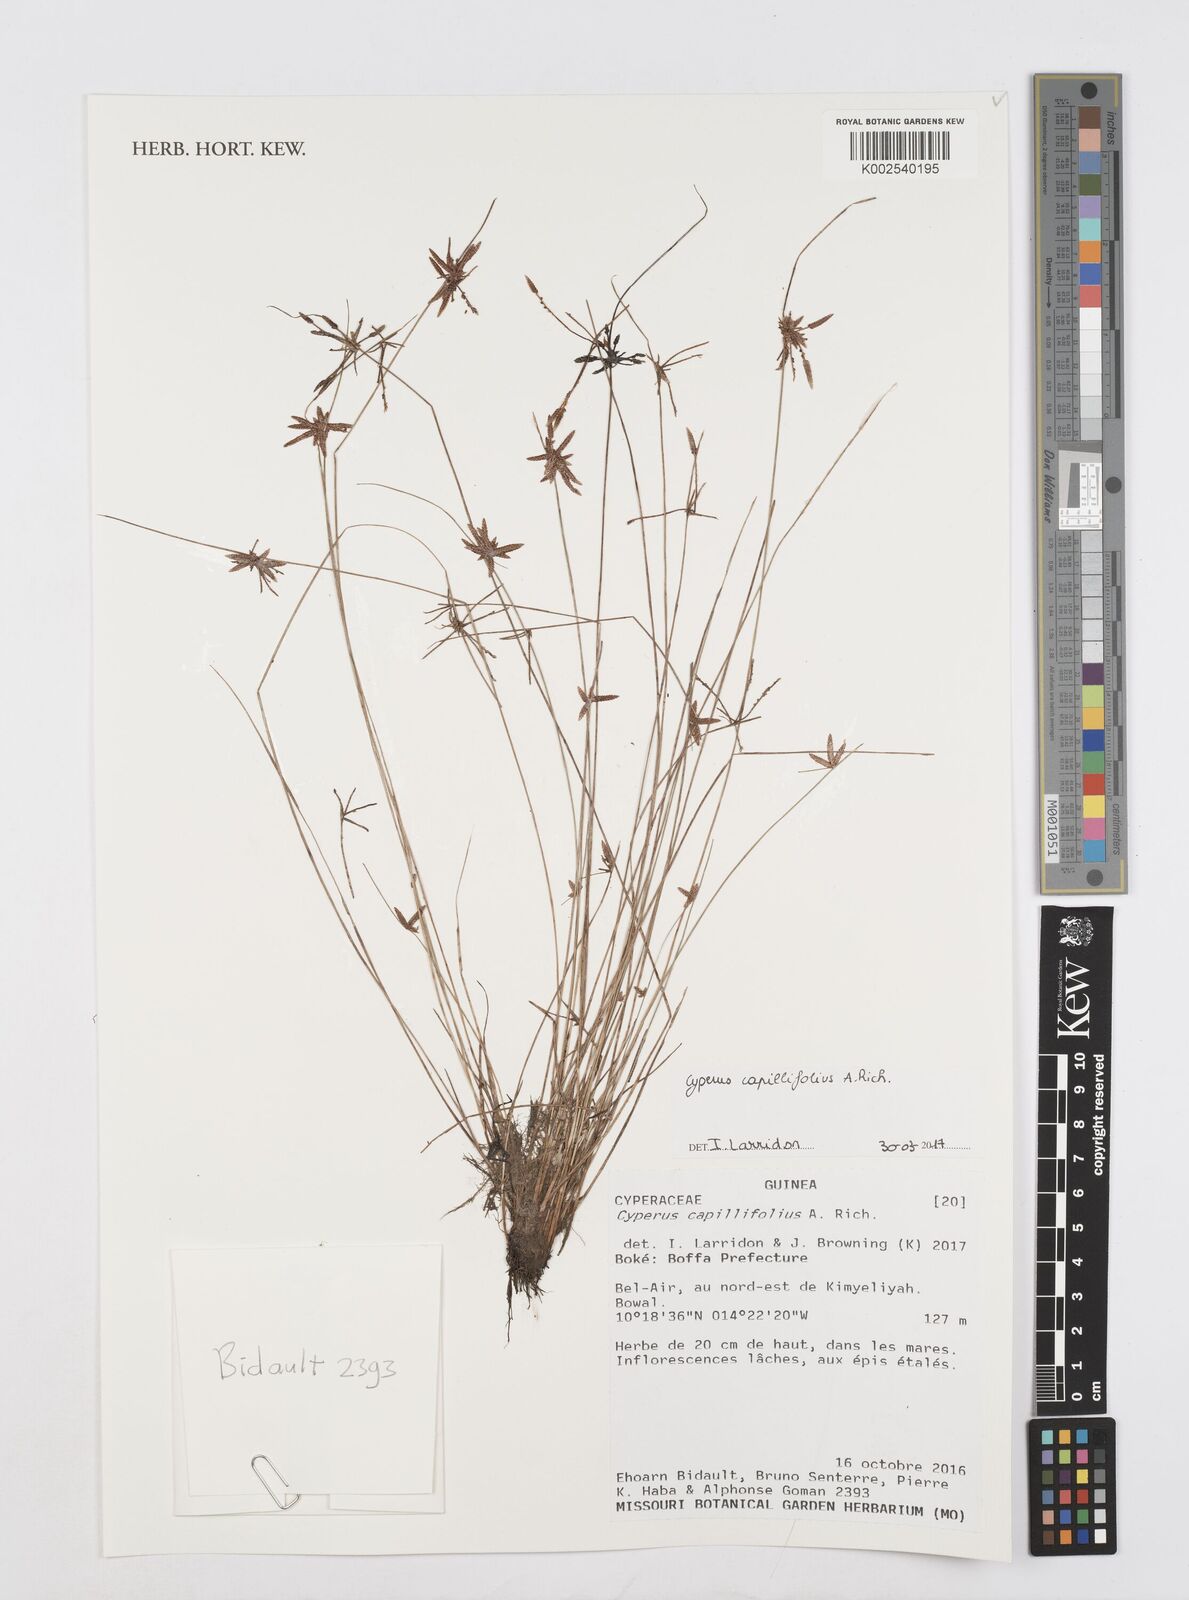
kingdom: Plantae
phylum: Tracheophyta
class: Liliopsida
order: Poales
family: Cyperaceae
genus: Cyperus
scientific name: Cyperus capillifolius
